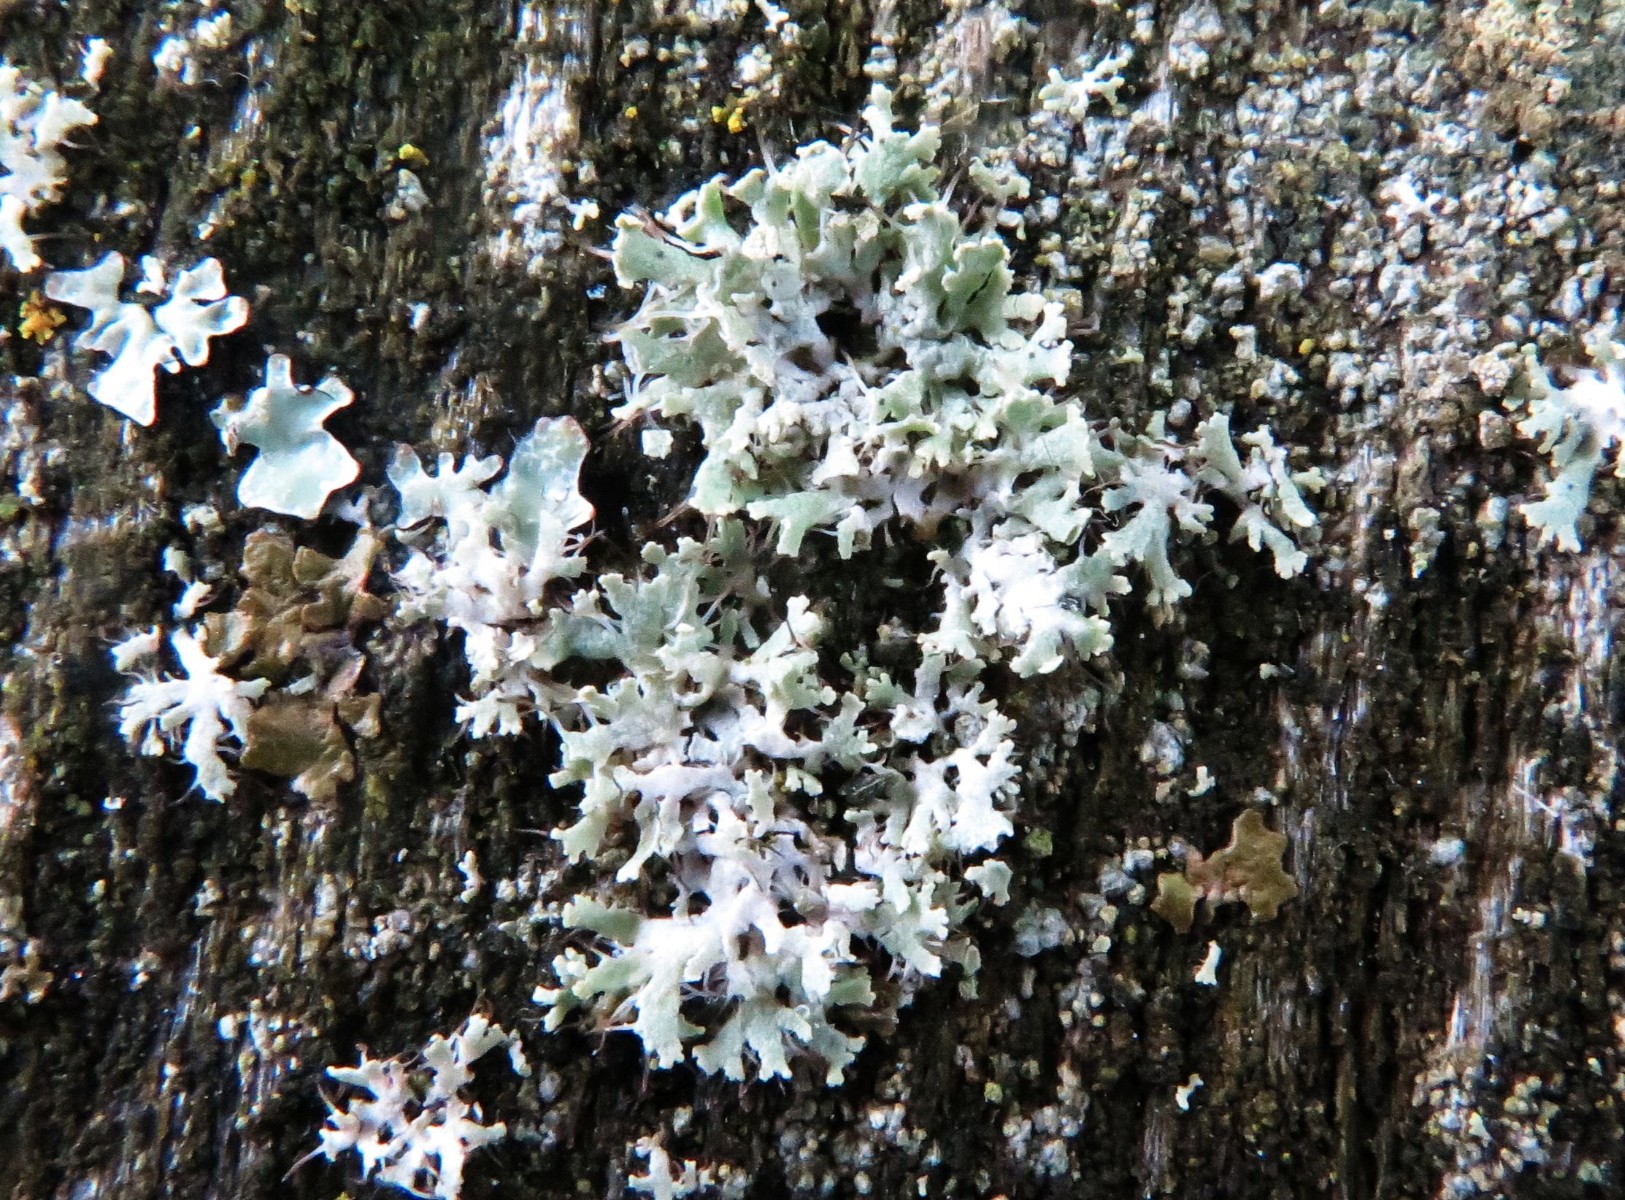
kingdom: Fungi
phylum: Ascomycota
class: Lecanoromycetes
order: Caliciales
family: Physciaceae
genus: Physcia
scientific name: Physcia tenella
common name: spæd rosetlav
